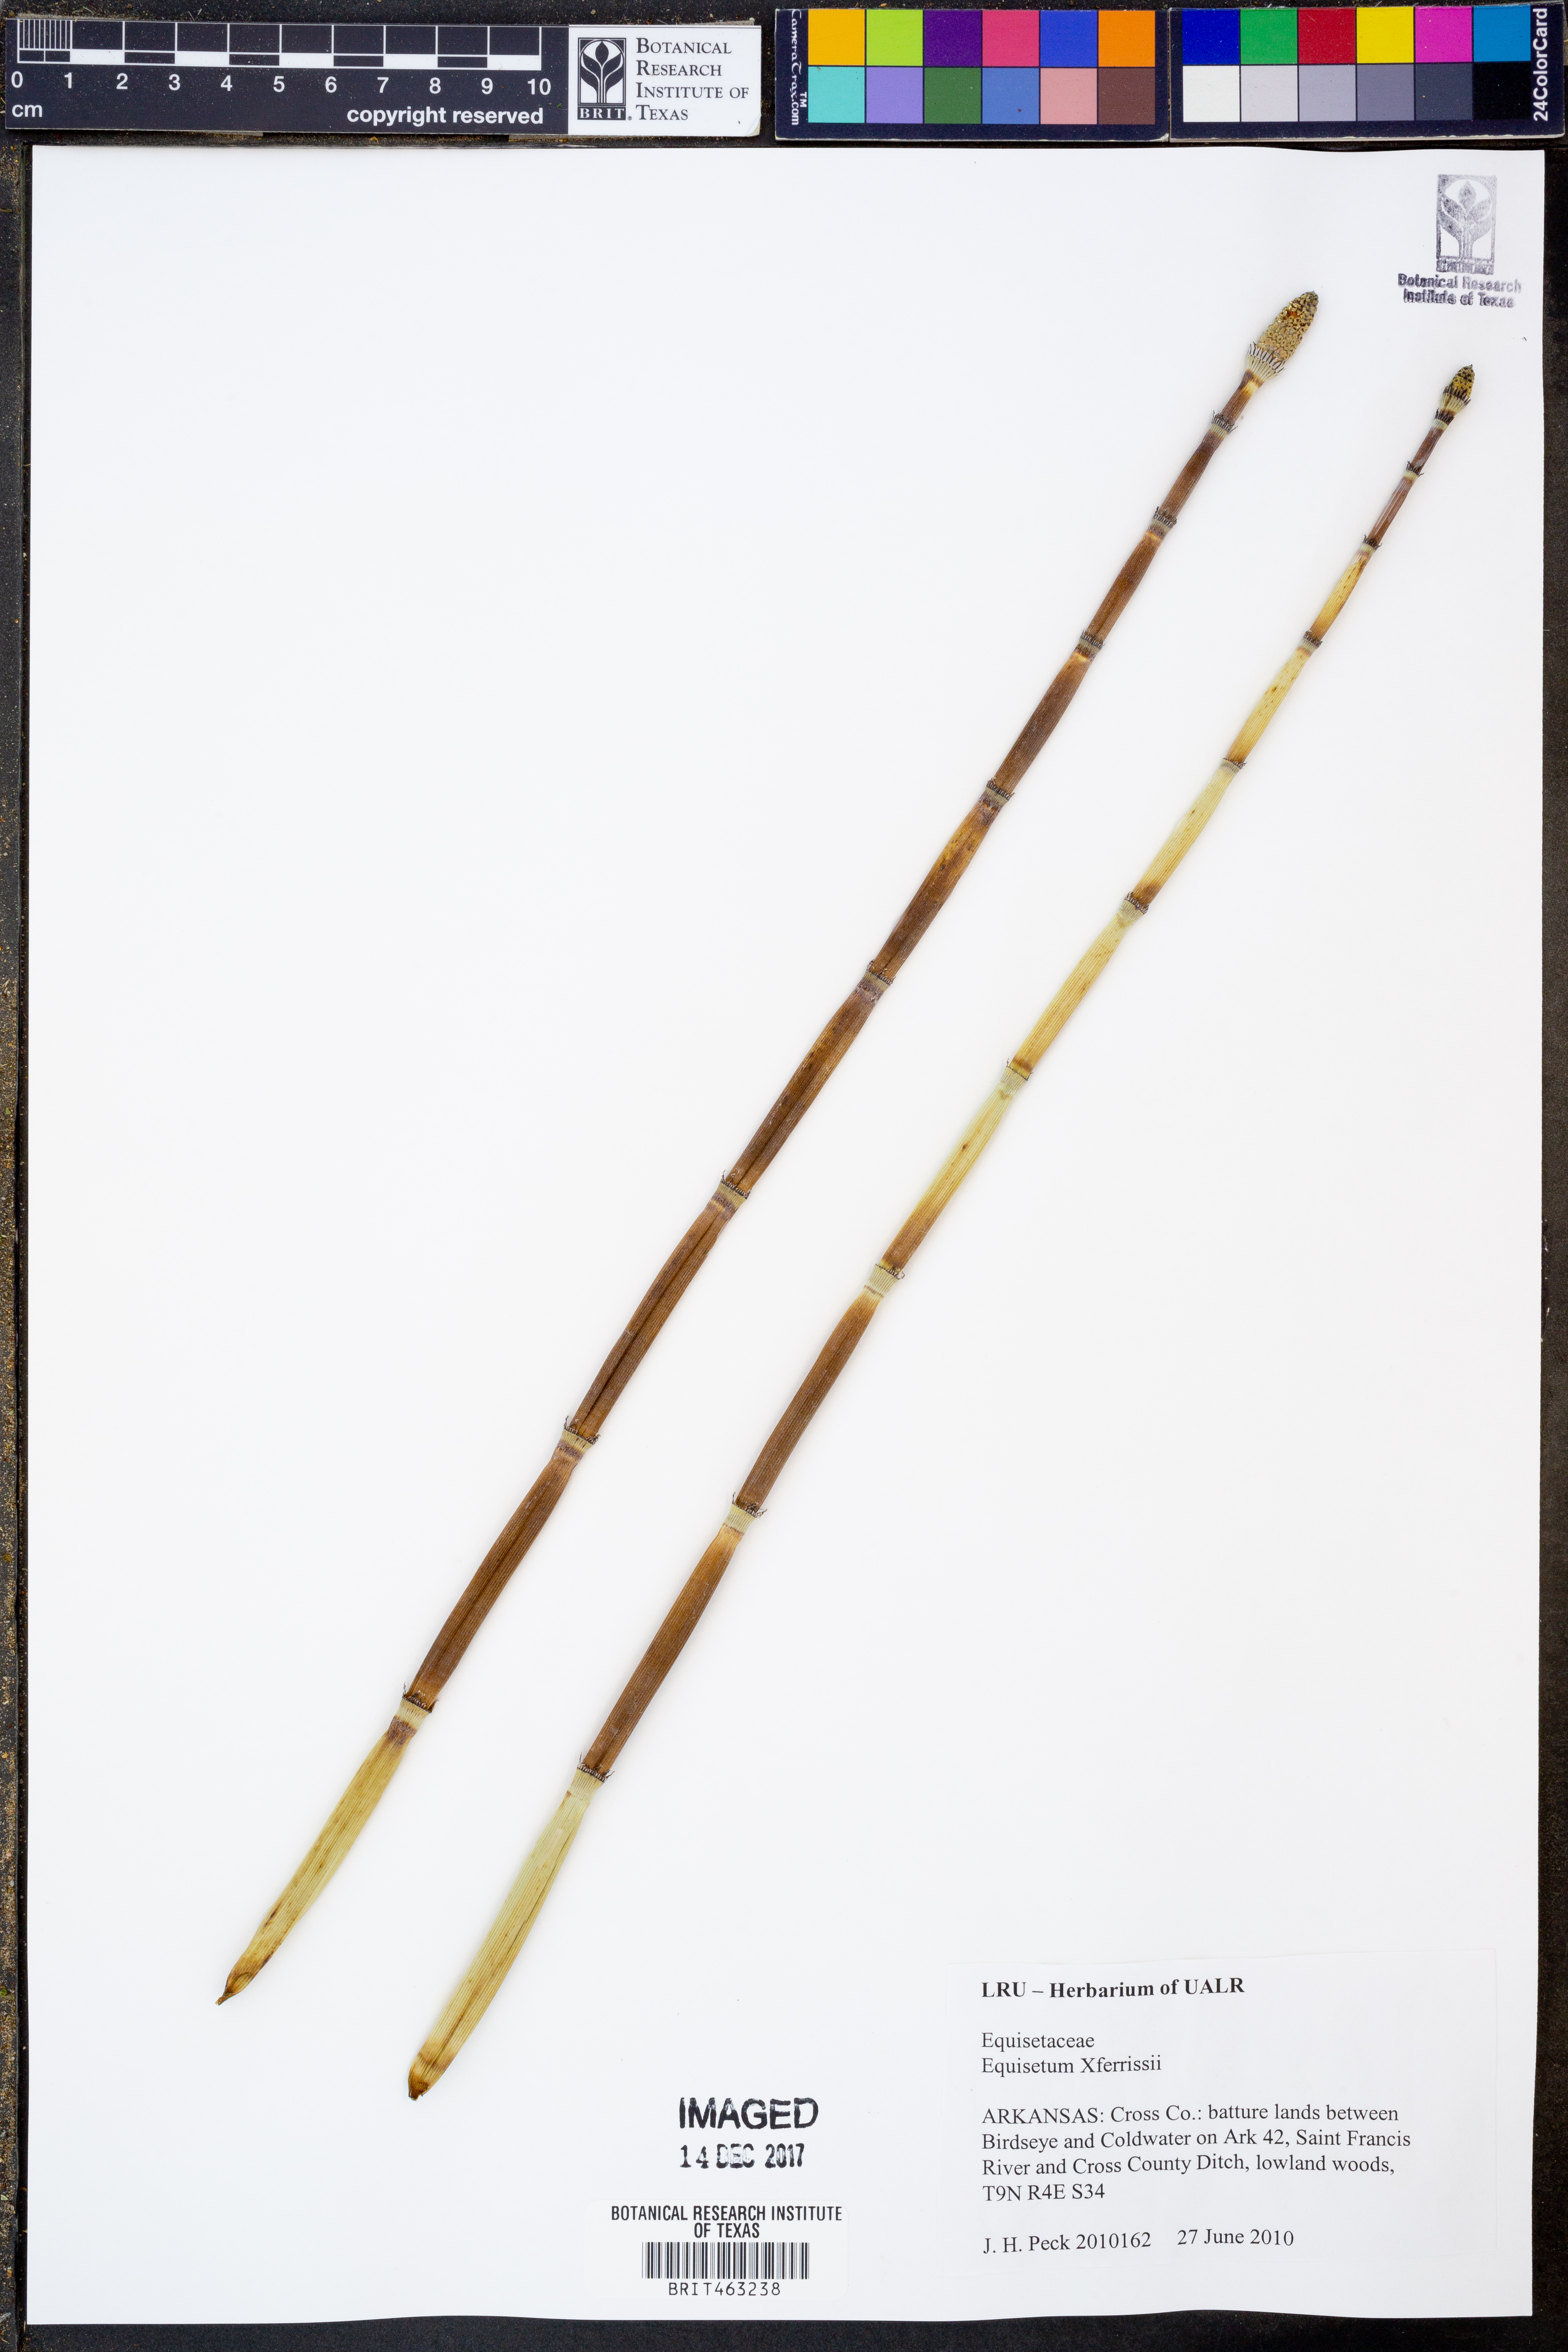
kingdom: Plantae
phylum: Tracheophyta
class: Polypodiopsida
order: Equisetales
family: Equisetaceae
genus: Equisetum
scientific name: Equisetum ferrissii
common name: Ferriss' horsetail
